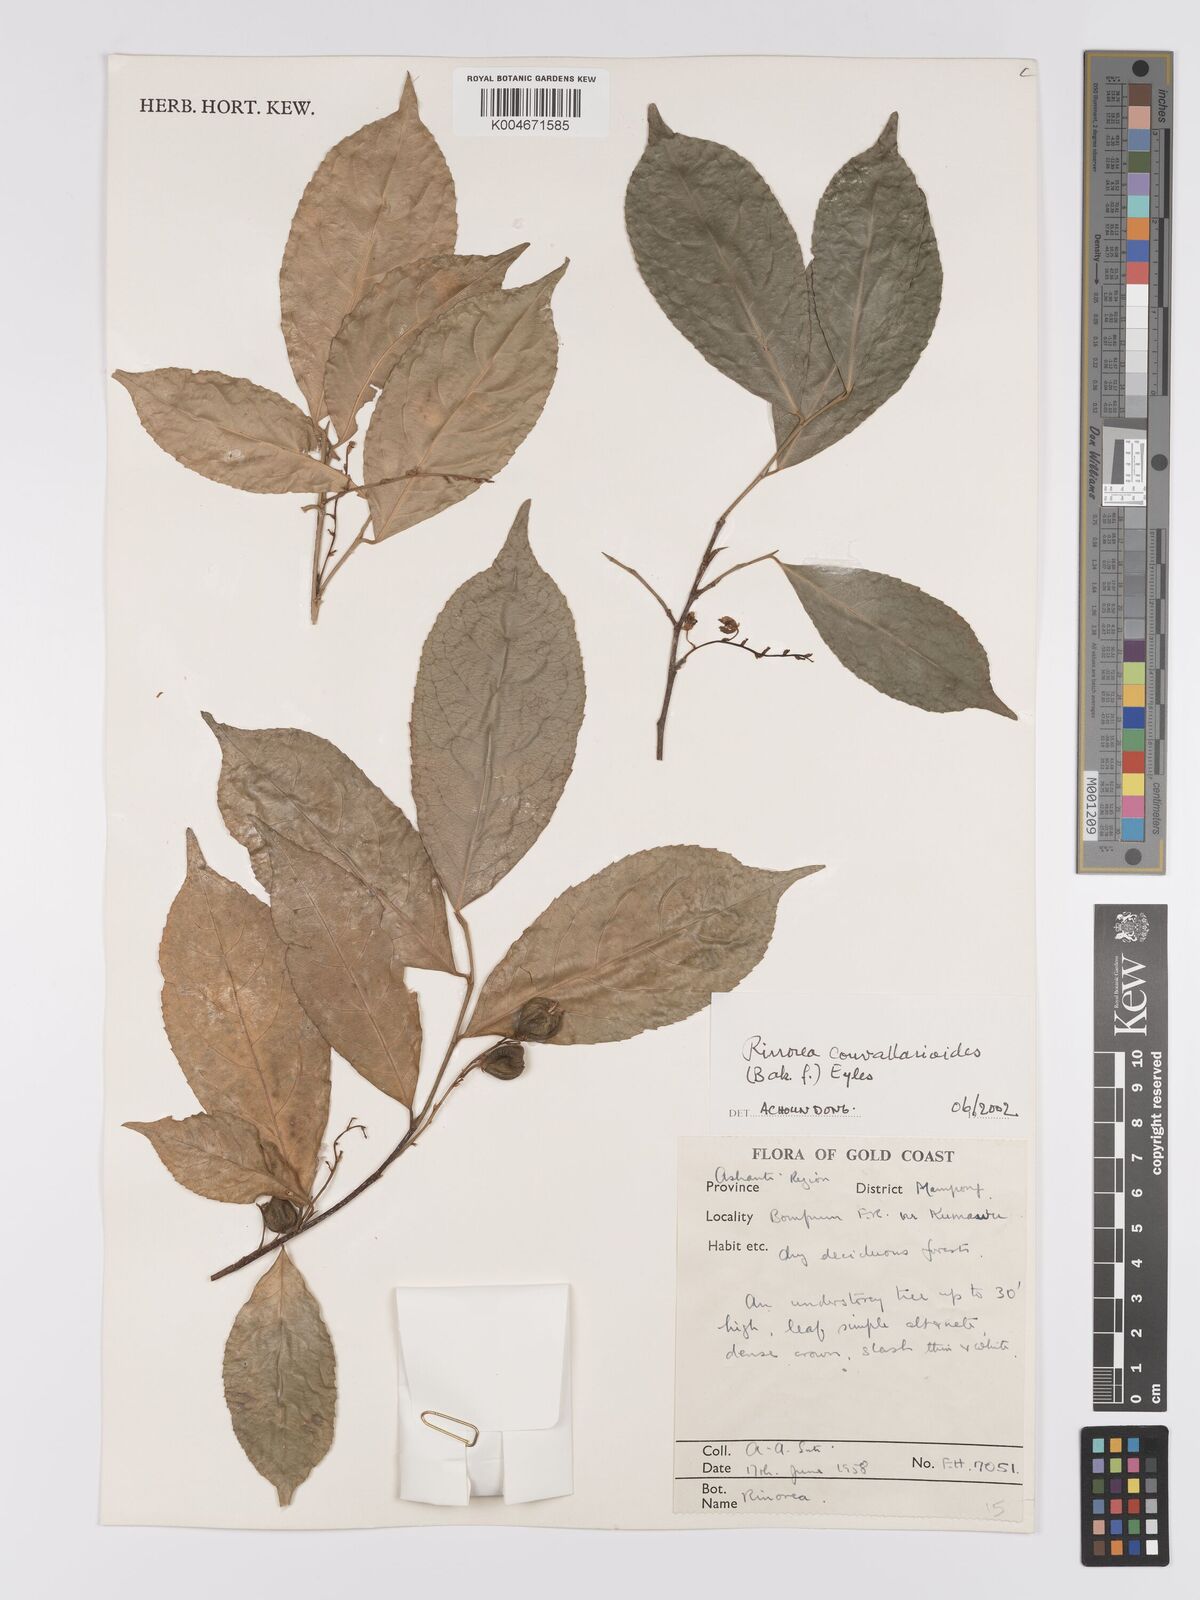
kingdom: Plantae
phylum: Tracheophyta
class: Magnoliopsida
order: Malpighiales
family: Violaceae
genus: Rinorea
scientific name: Rinorea convallarioides
